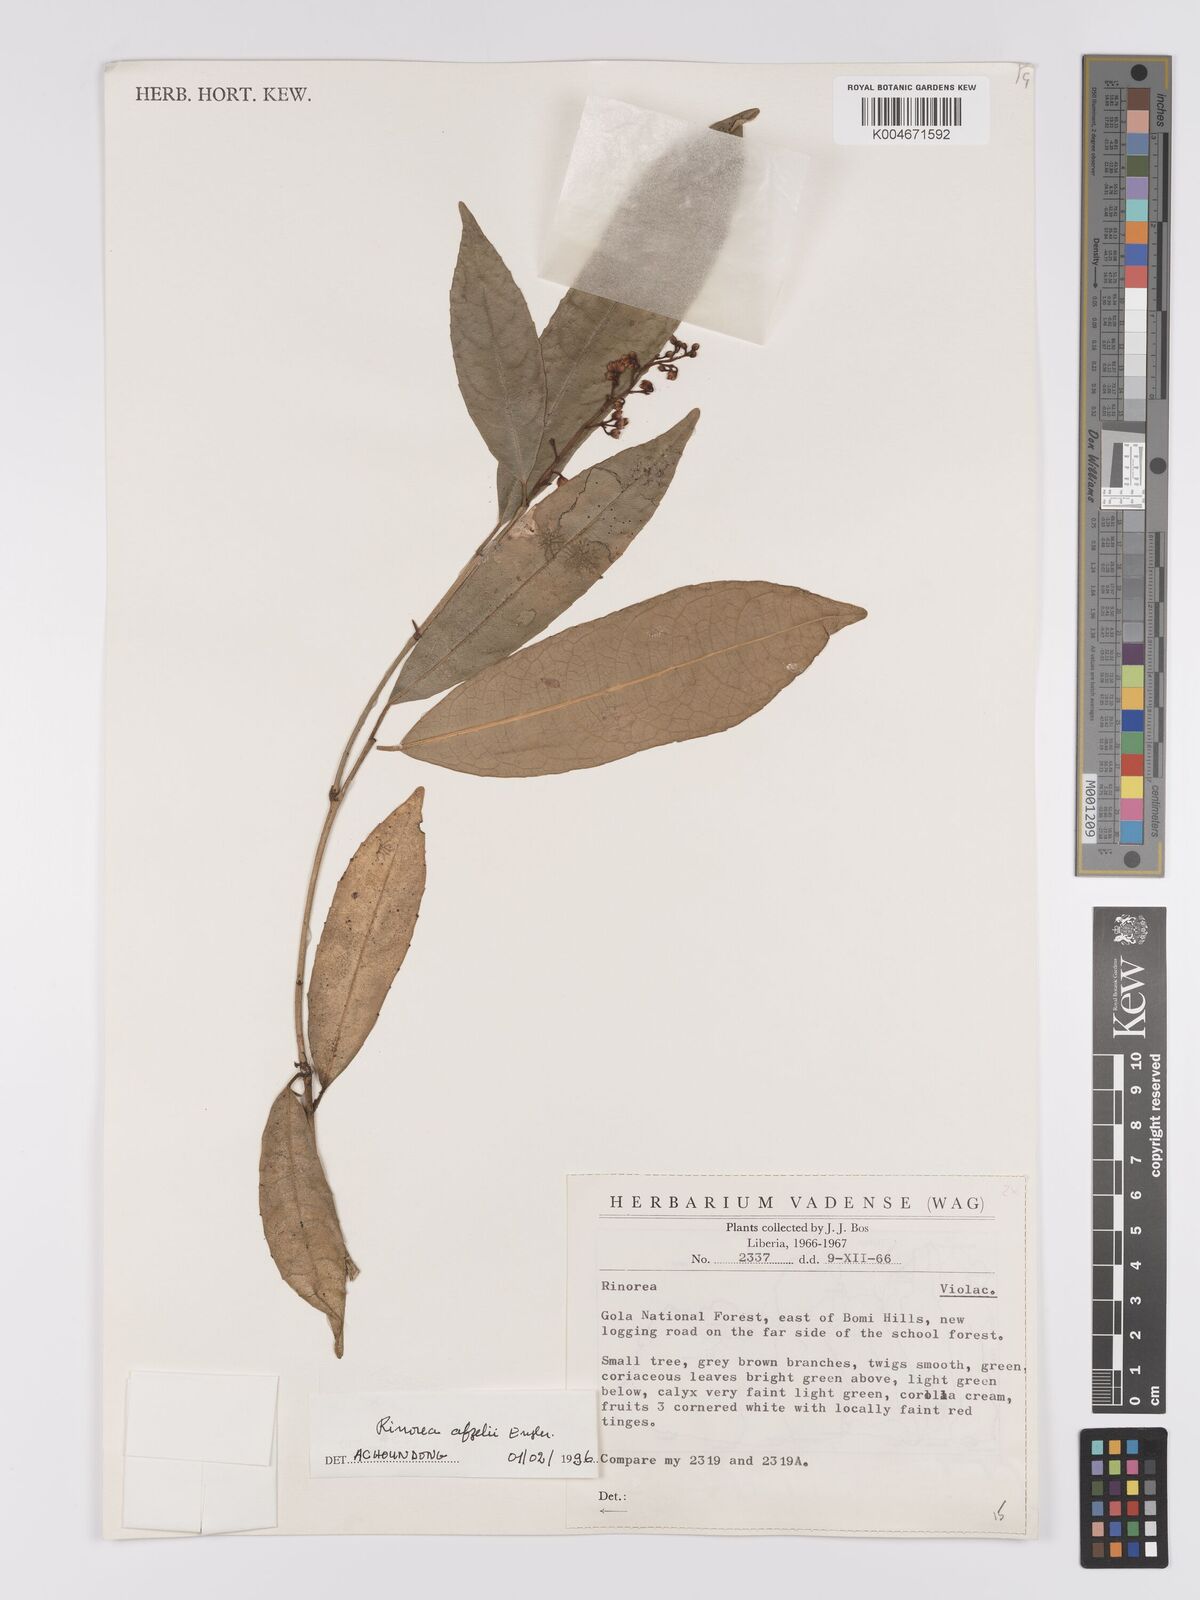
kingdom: Plantae
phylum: Tracheophyta
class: Magnoliopsida
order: Malpighiales
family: Violaceae
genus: Rinorea
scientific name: Rinorea afzelii
